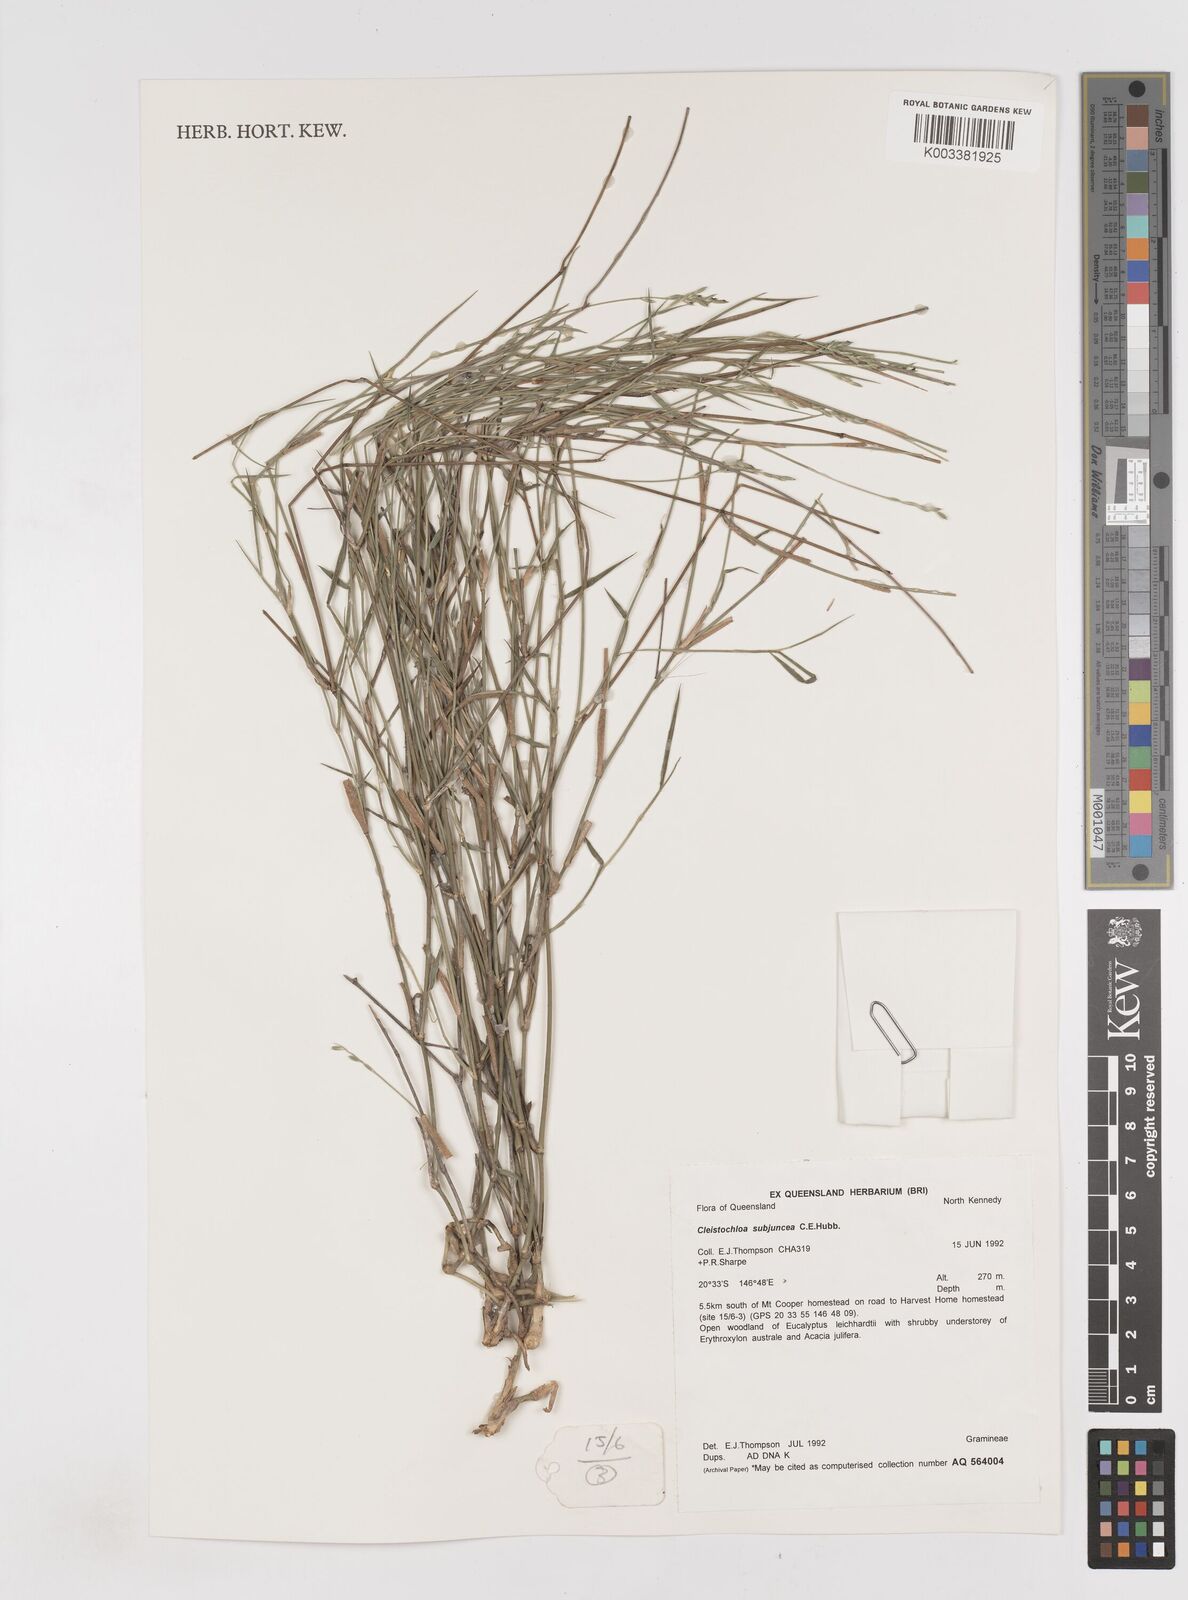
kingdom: Plantae
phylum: Tracheophyta
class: Liliopsida
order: Poales
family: Poaceae
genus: Cleistochloa
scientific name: Cleistochloa subjuncea
